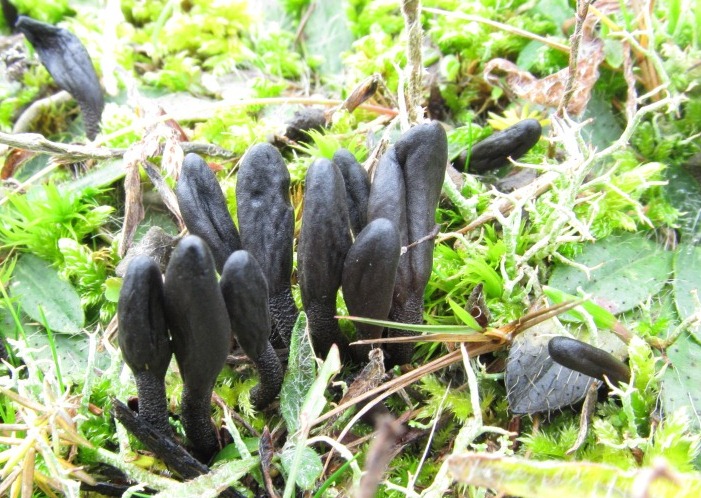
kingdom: Fungi
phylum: Ascomycota
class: Geoglossomycetes
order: Geoglossales
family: Geoglossaceae
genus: Geoglossum
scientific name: Geoglossum atropurpureum
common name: purpursort farvetunge
